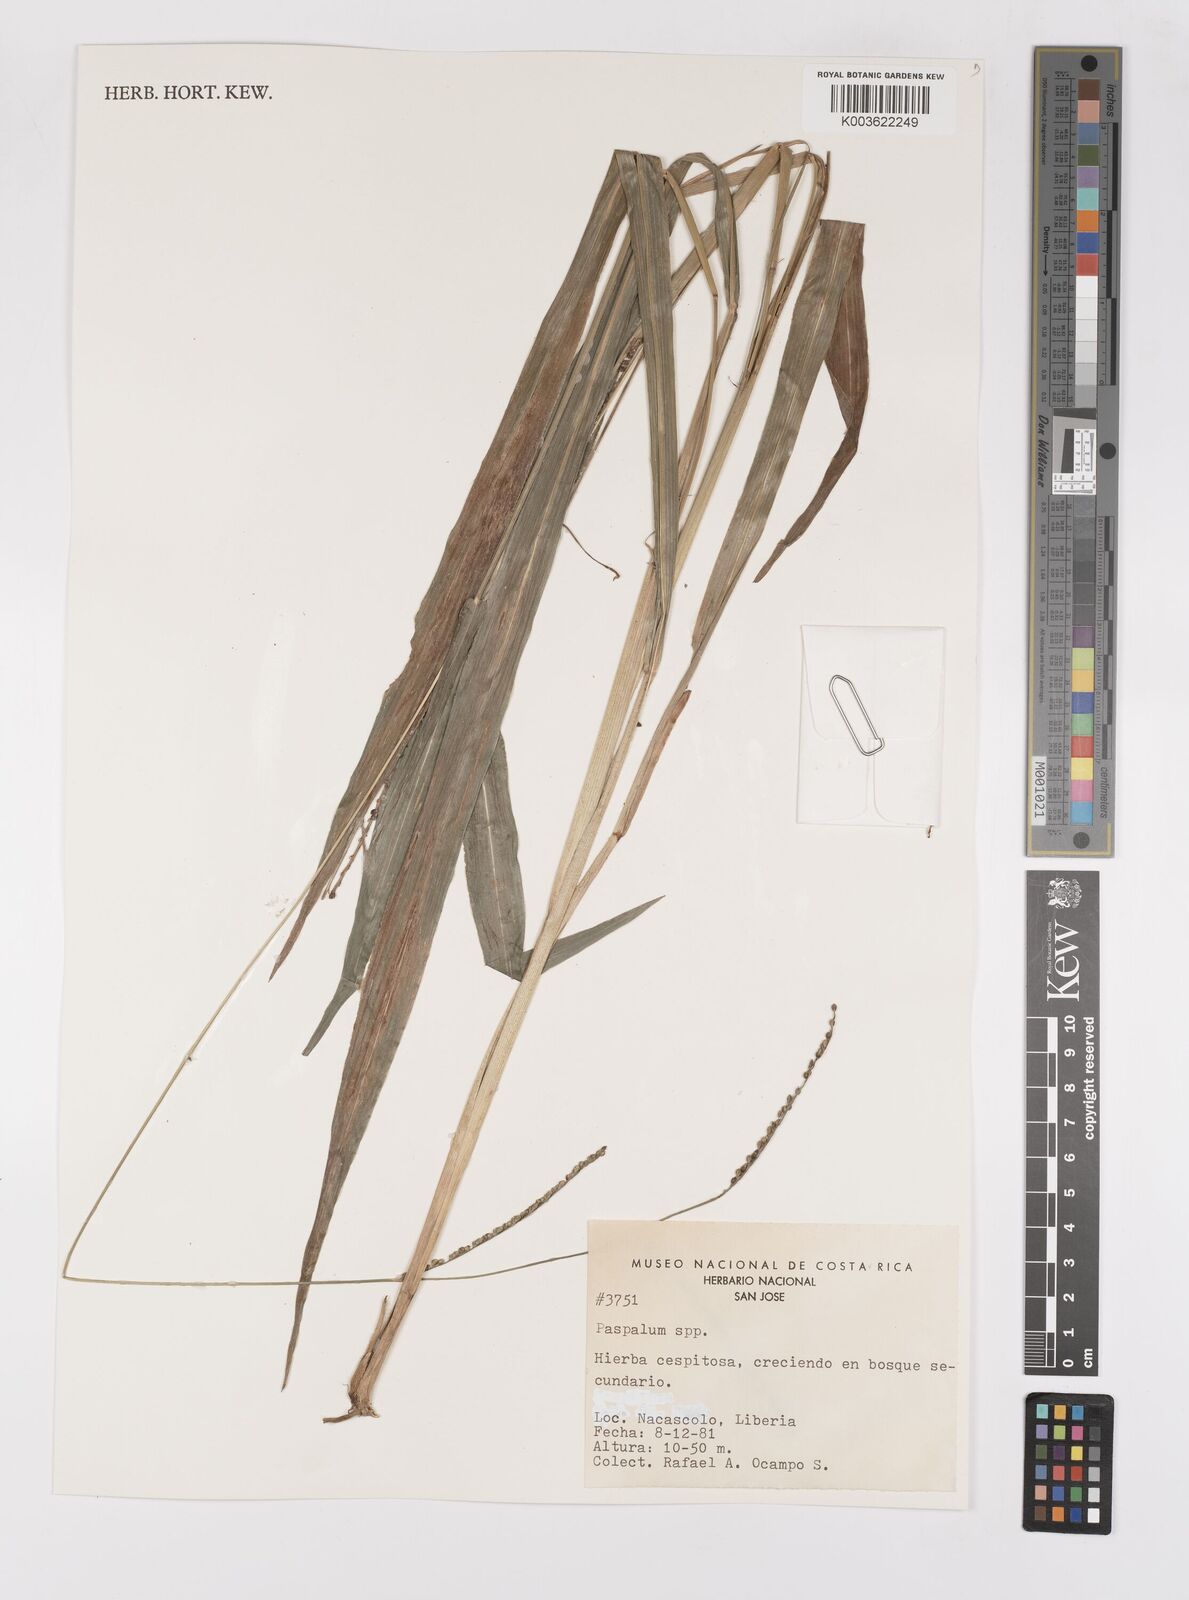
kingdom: Plantae
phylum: Tracheophyta
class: Liliopsida
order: Poales
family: Poaceae
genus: Paspalum
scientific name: Paspalum
